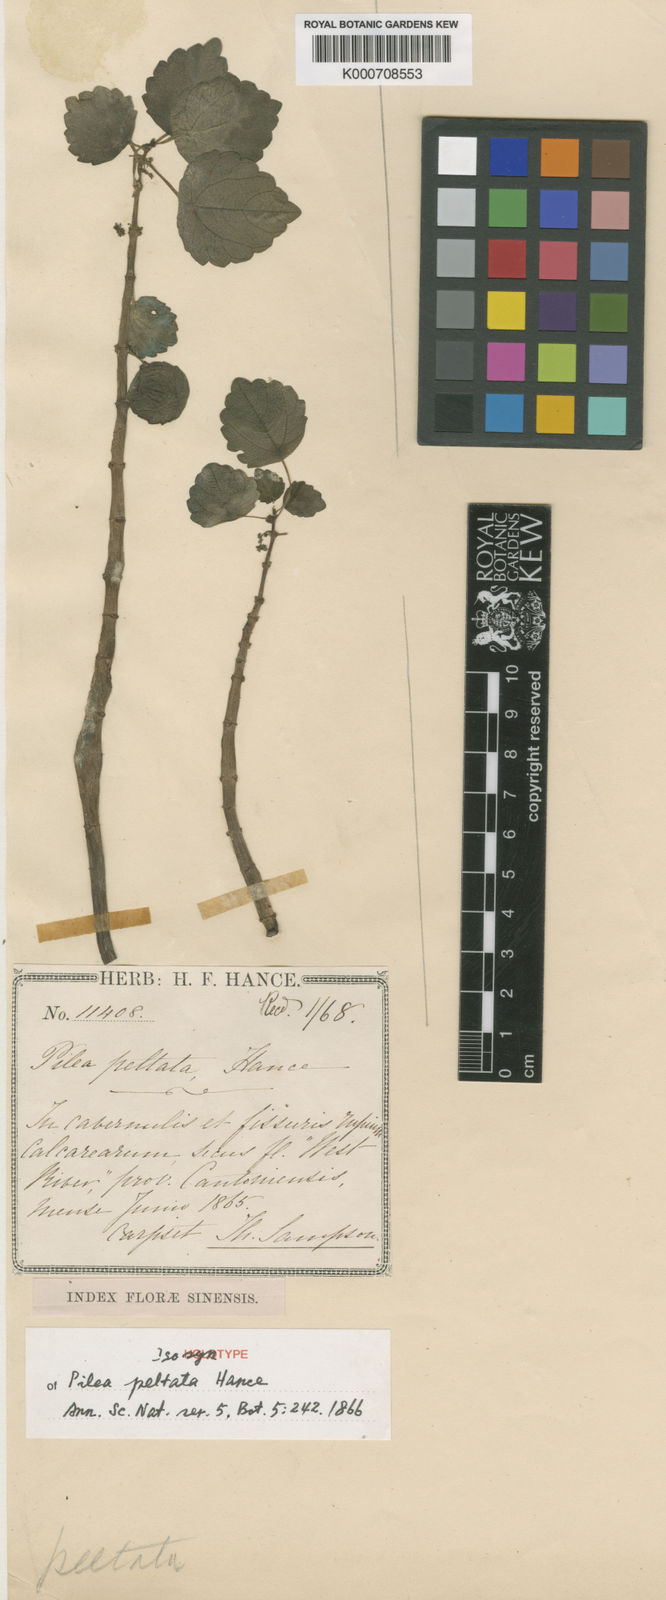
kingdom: Plantae
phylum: Tracheophyta
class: Magnoliopsida
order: Rosales
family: Urticaceae
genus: Pilea
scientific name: Pilea peltata
